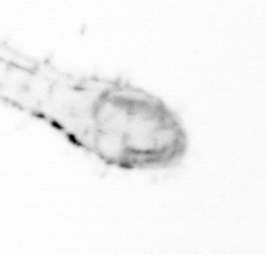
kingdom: Animalia
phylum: Chaetognatha
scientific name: Chaetognatha
